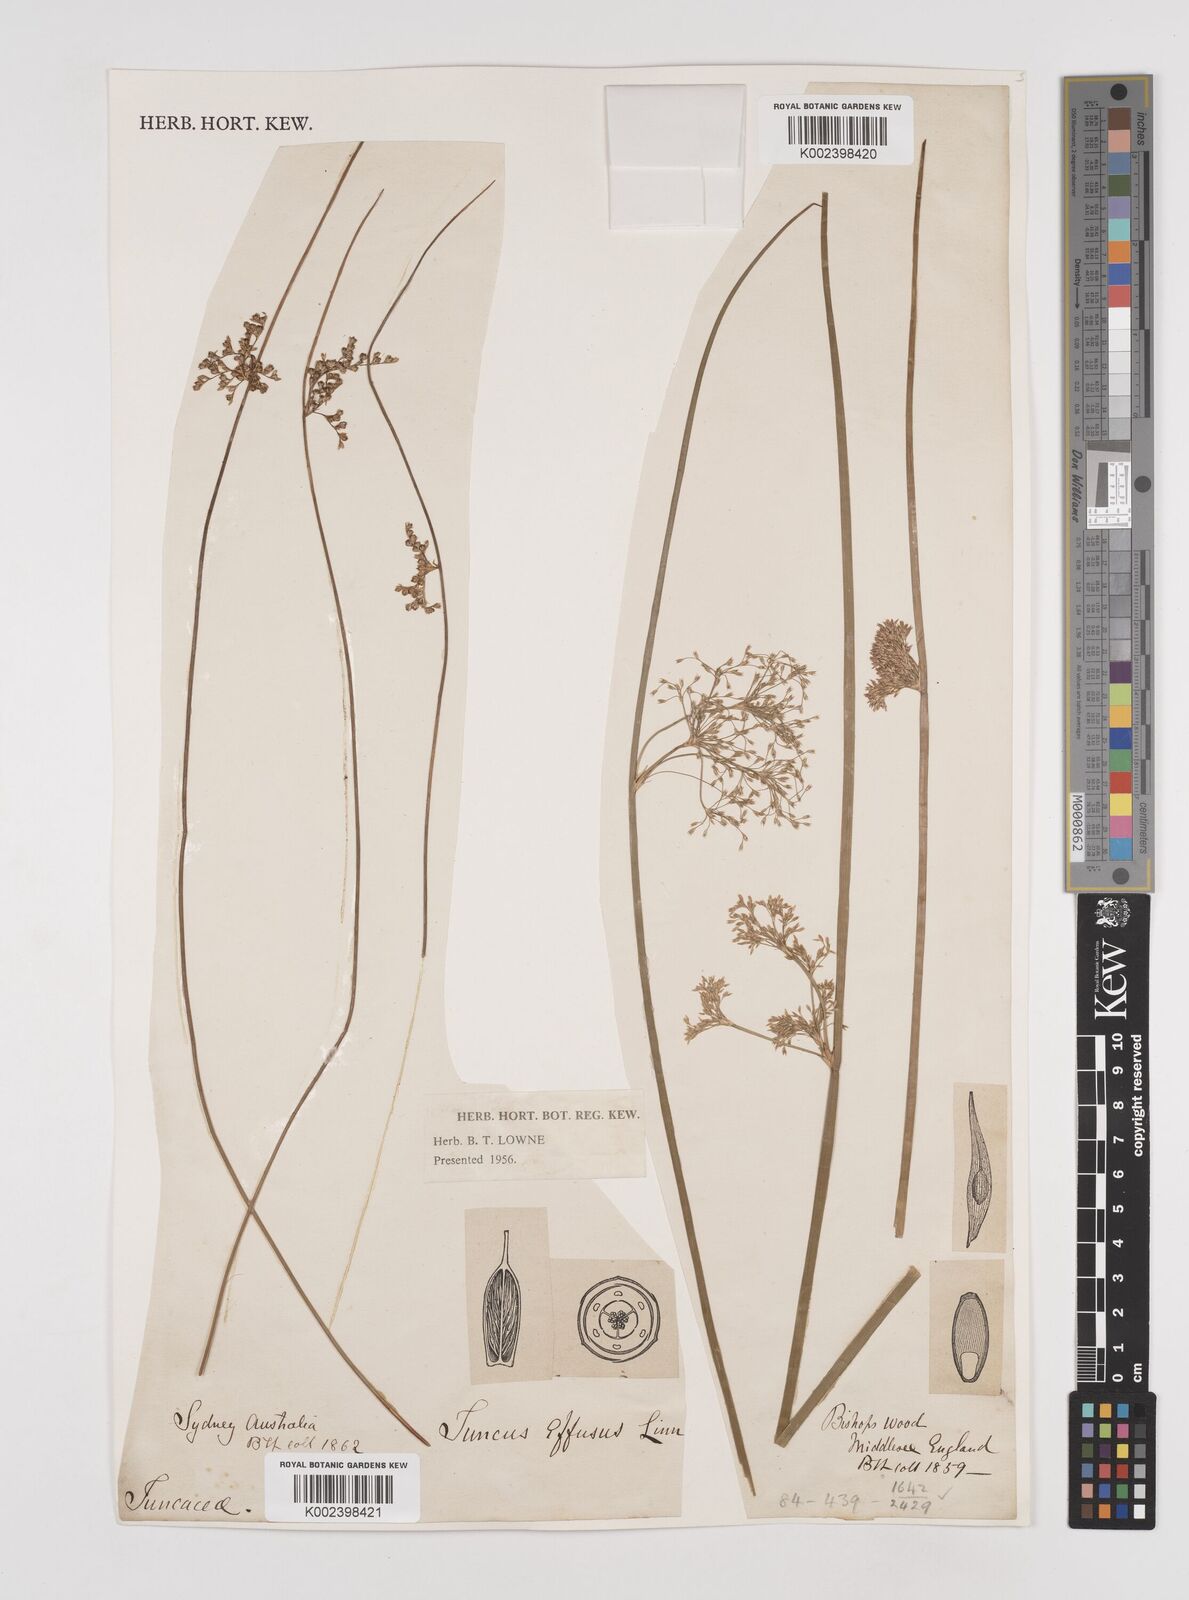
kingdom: Plantae
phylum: Tracheophyta
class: Liliopsida
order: Poales
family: Juncaceae
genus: Juncus
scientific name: Juncus effusus
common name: Soft rush
